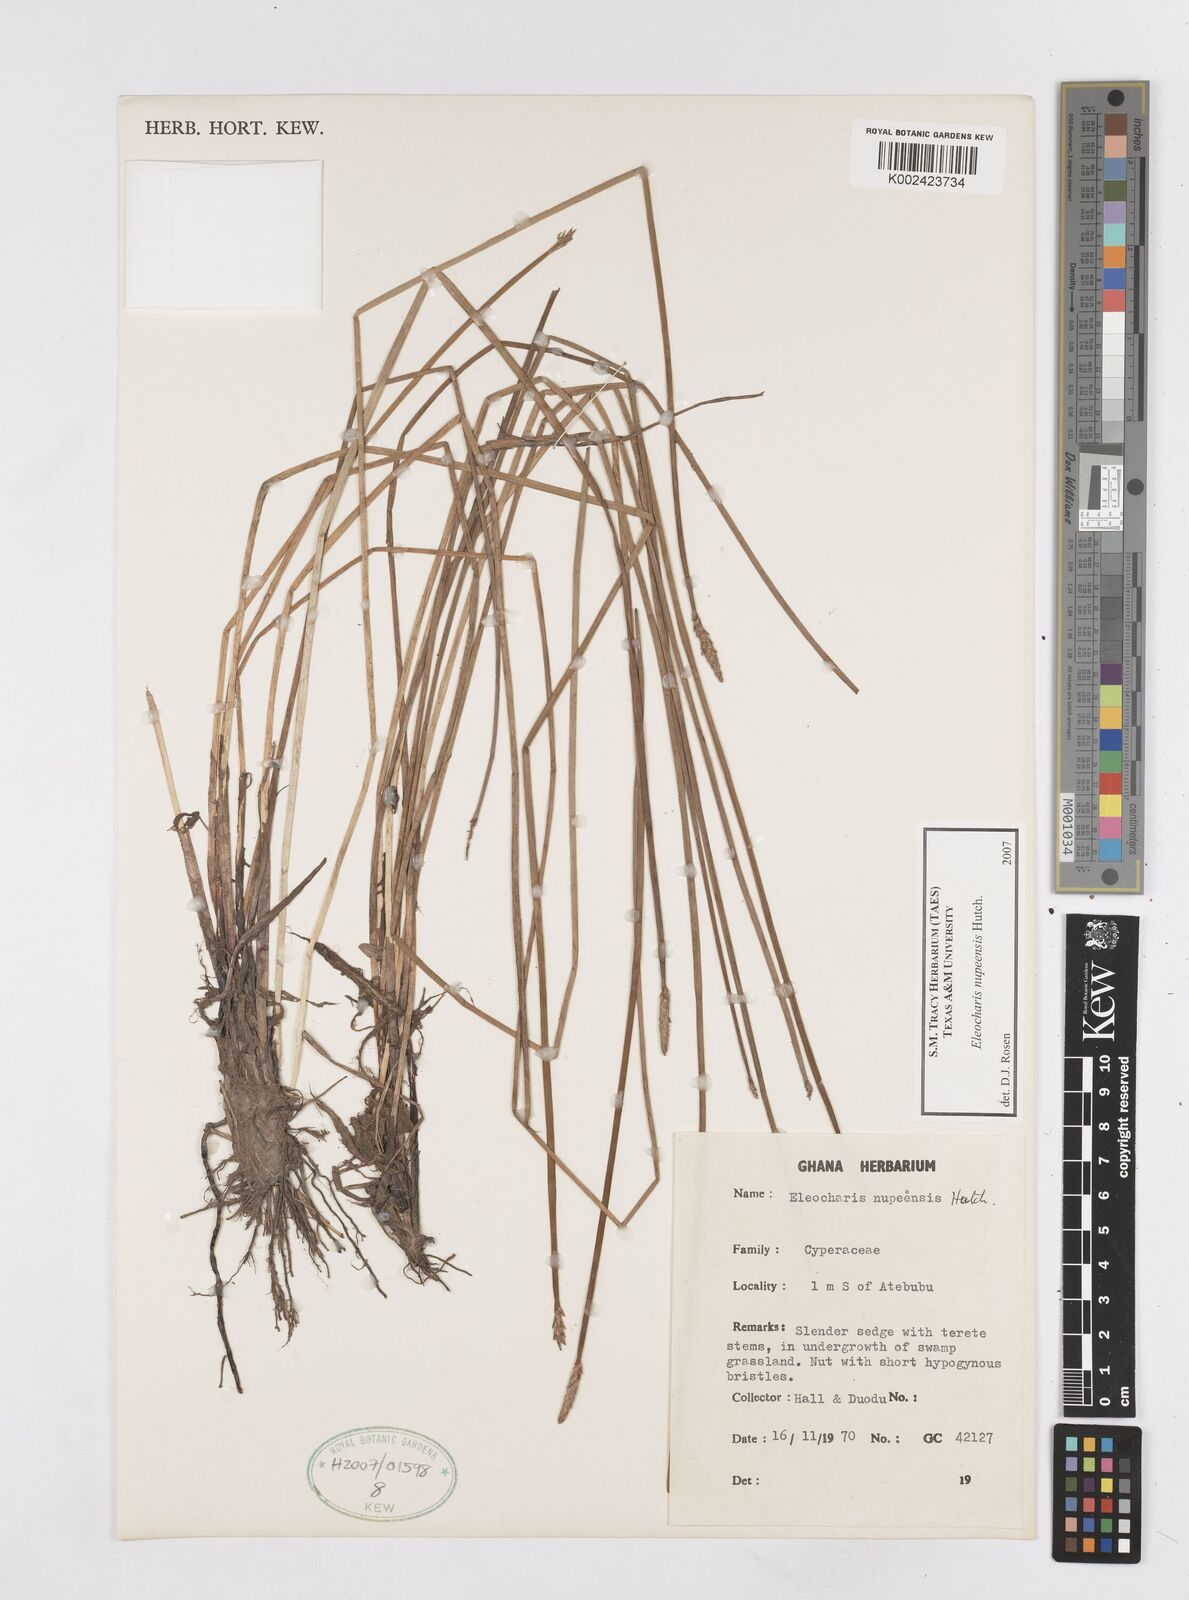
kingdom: Plantae
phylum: Tracheophyta
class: Liliopsida
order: Poales
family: Cyperaceae
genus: Eleocharis
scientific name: Eleocharis nupeensis
